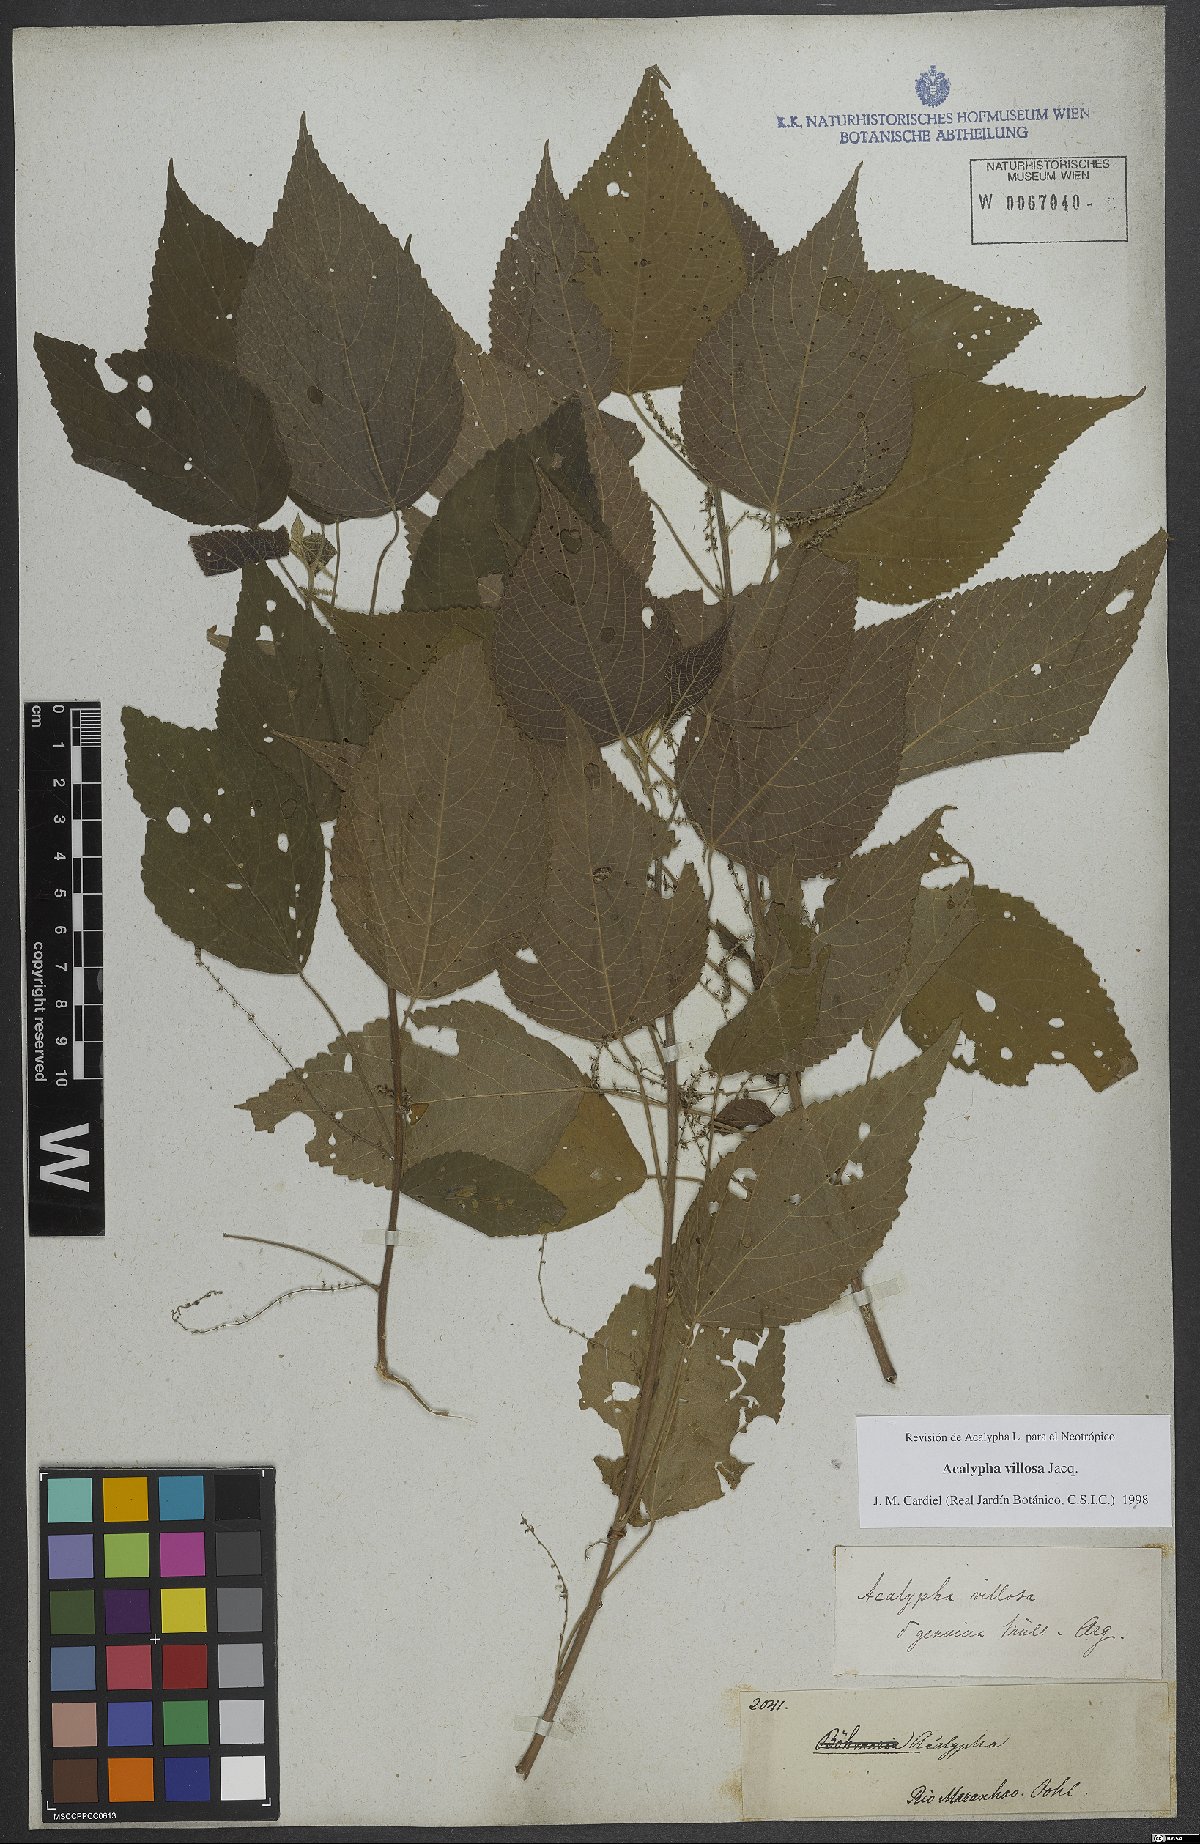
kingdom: Plantae
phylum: Tracheophyta
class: Magnoliopsida
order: Malpighiales
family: Euphorbiaceae
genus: Acalypha
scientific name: Acalypha villosa
